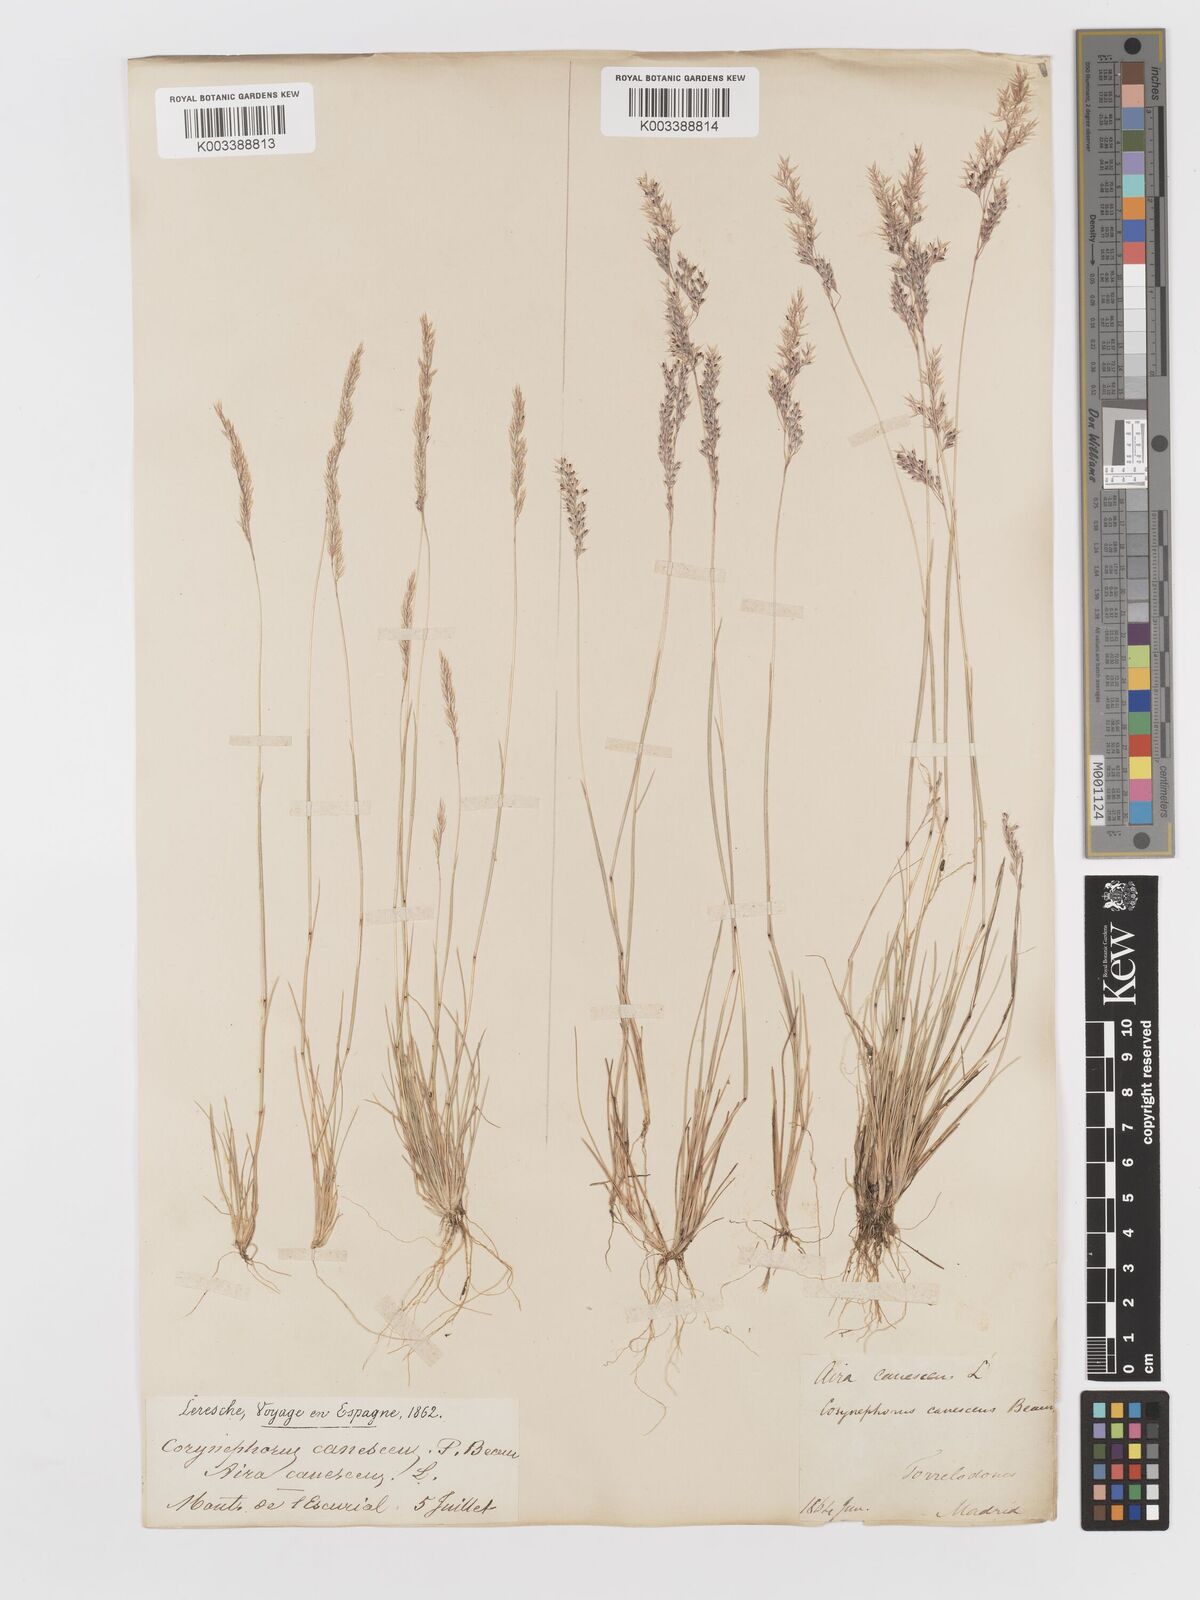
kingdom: Plantae
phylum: Tracheophyta
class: Liliopsida
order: Poales
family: Poaceae
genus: Corynephorus
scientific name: Corynephorus canescens
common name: Grey hair-grass
